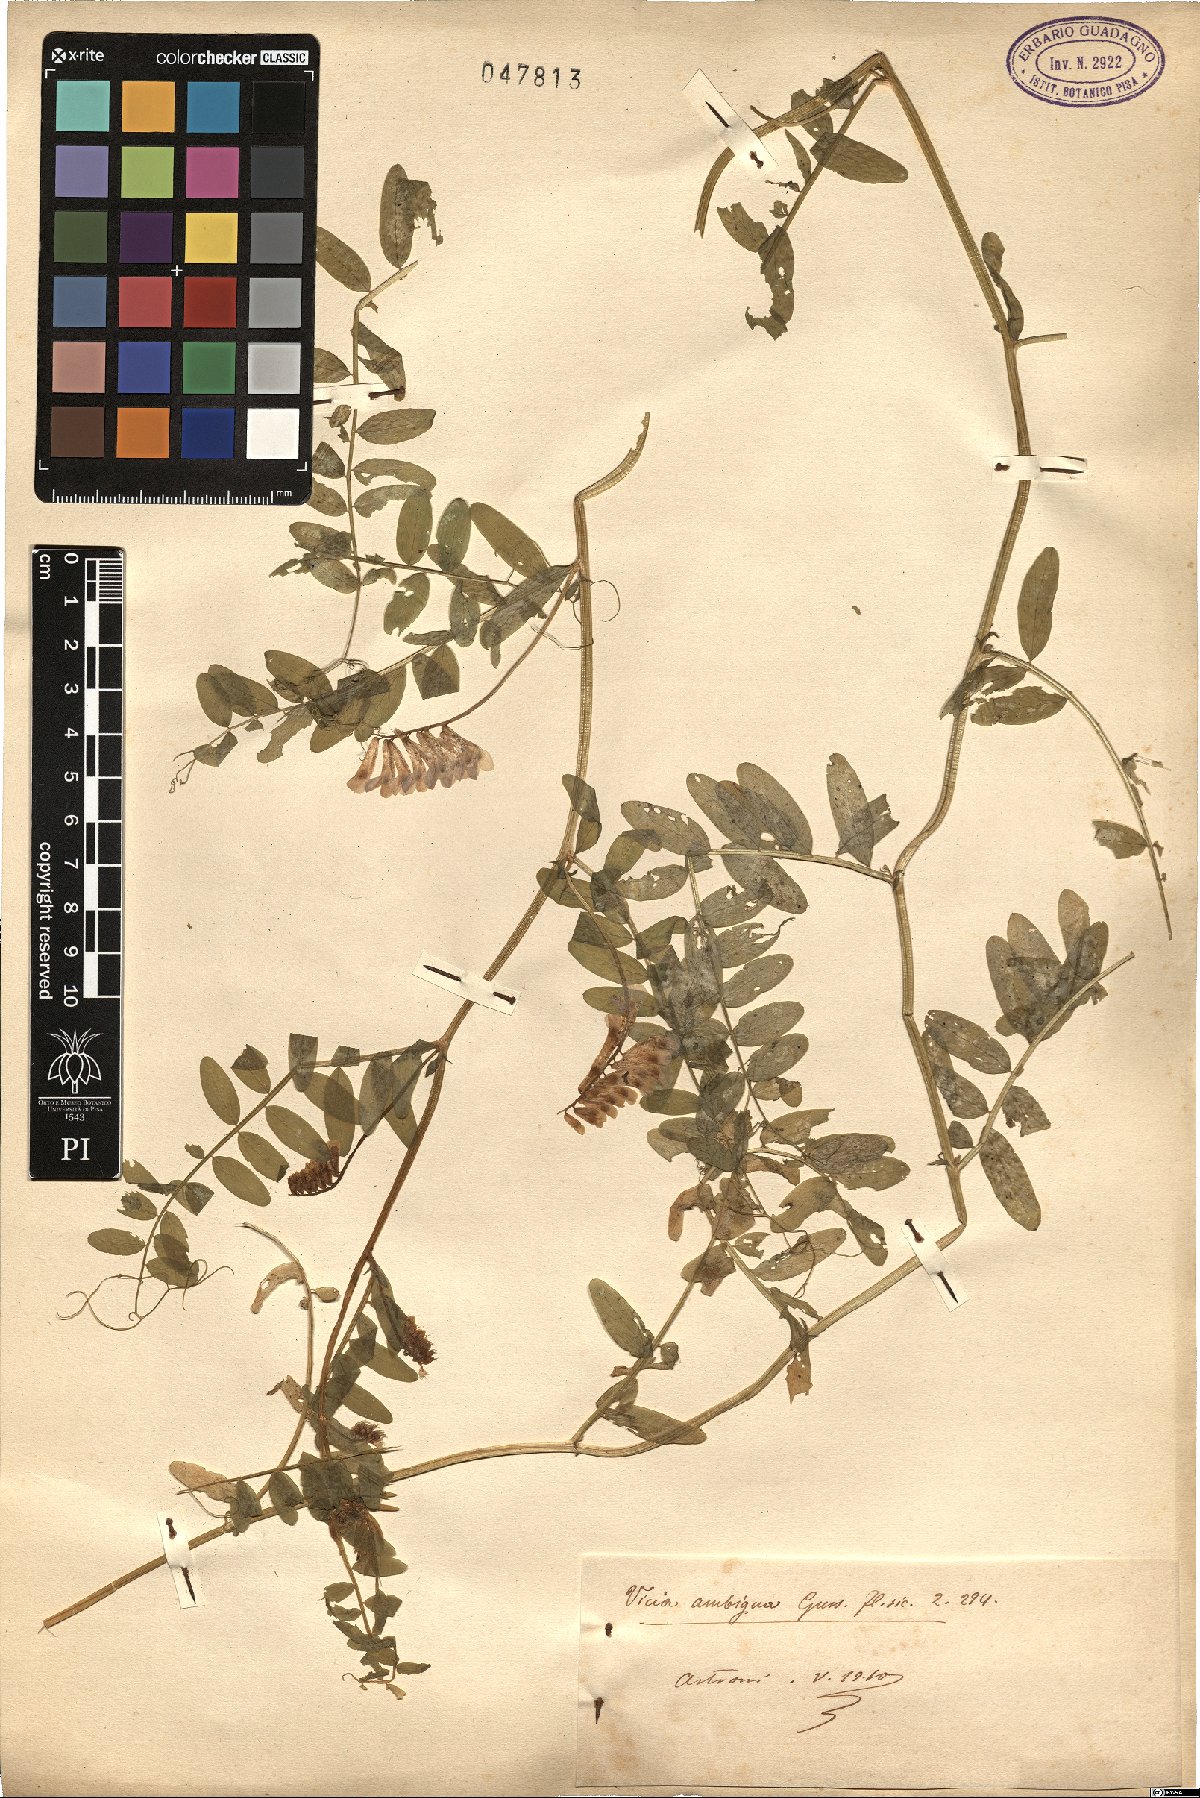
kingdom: Plantae
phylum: Tracheophyta
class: Magnoliopsida
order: Fabales
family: Fabaceae
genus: Vicia
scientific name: Vicia villosa
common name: Fodder vetch
